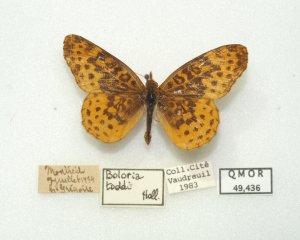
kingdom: Animalia
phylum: Arthropoda
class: Insecta
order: Lepidoptera
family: Nymphalidae
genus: Clossiana
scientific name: Clossiana toddi
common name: Meadow Fritillary
